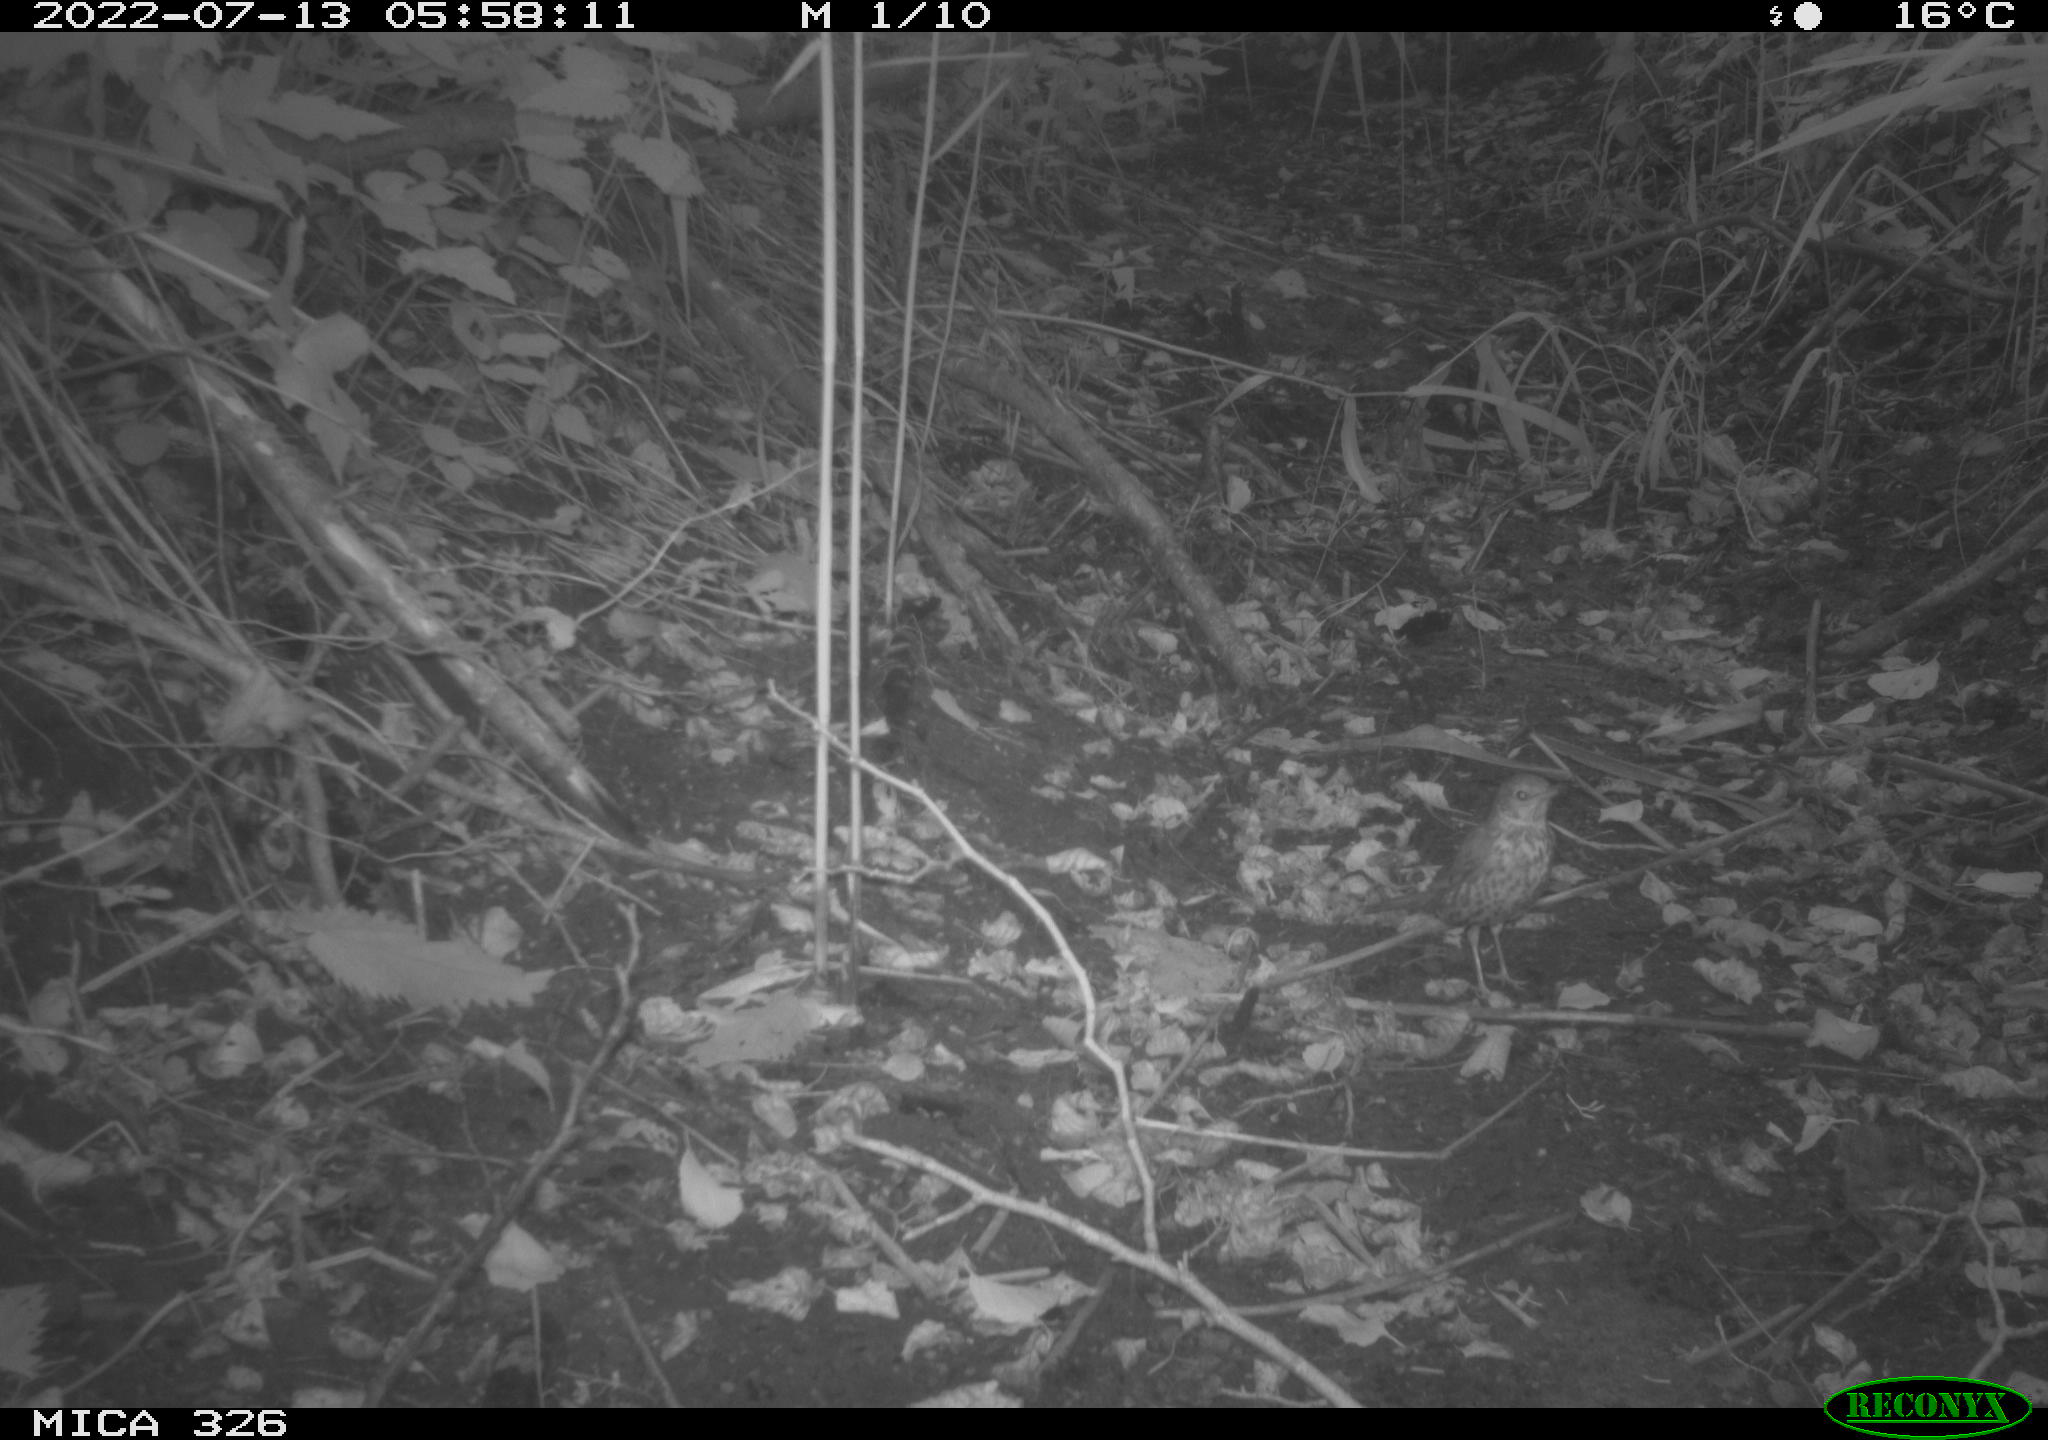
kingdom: Animalia
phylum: Chordata
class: Aves
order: Passeriformes
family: Turdidae
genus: Turdus
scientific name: Turdus philomelos
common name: Song thrush
